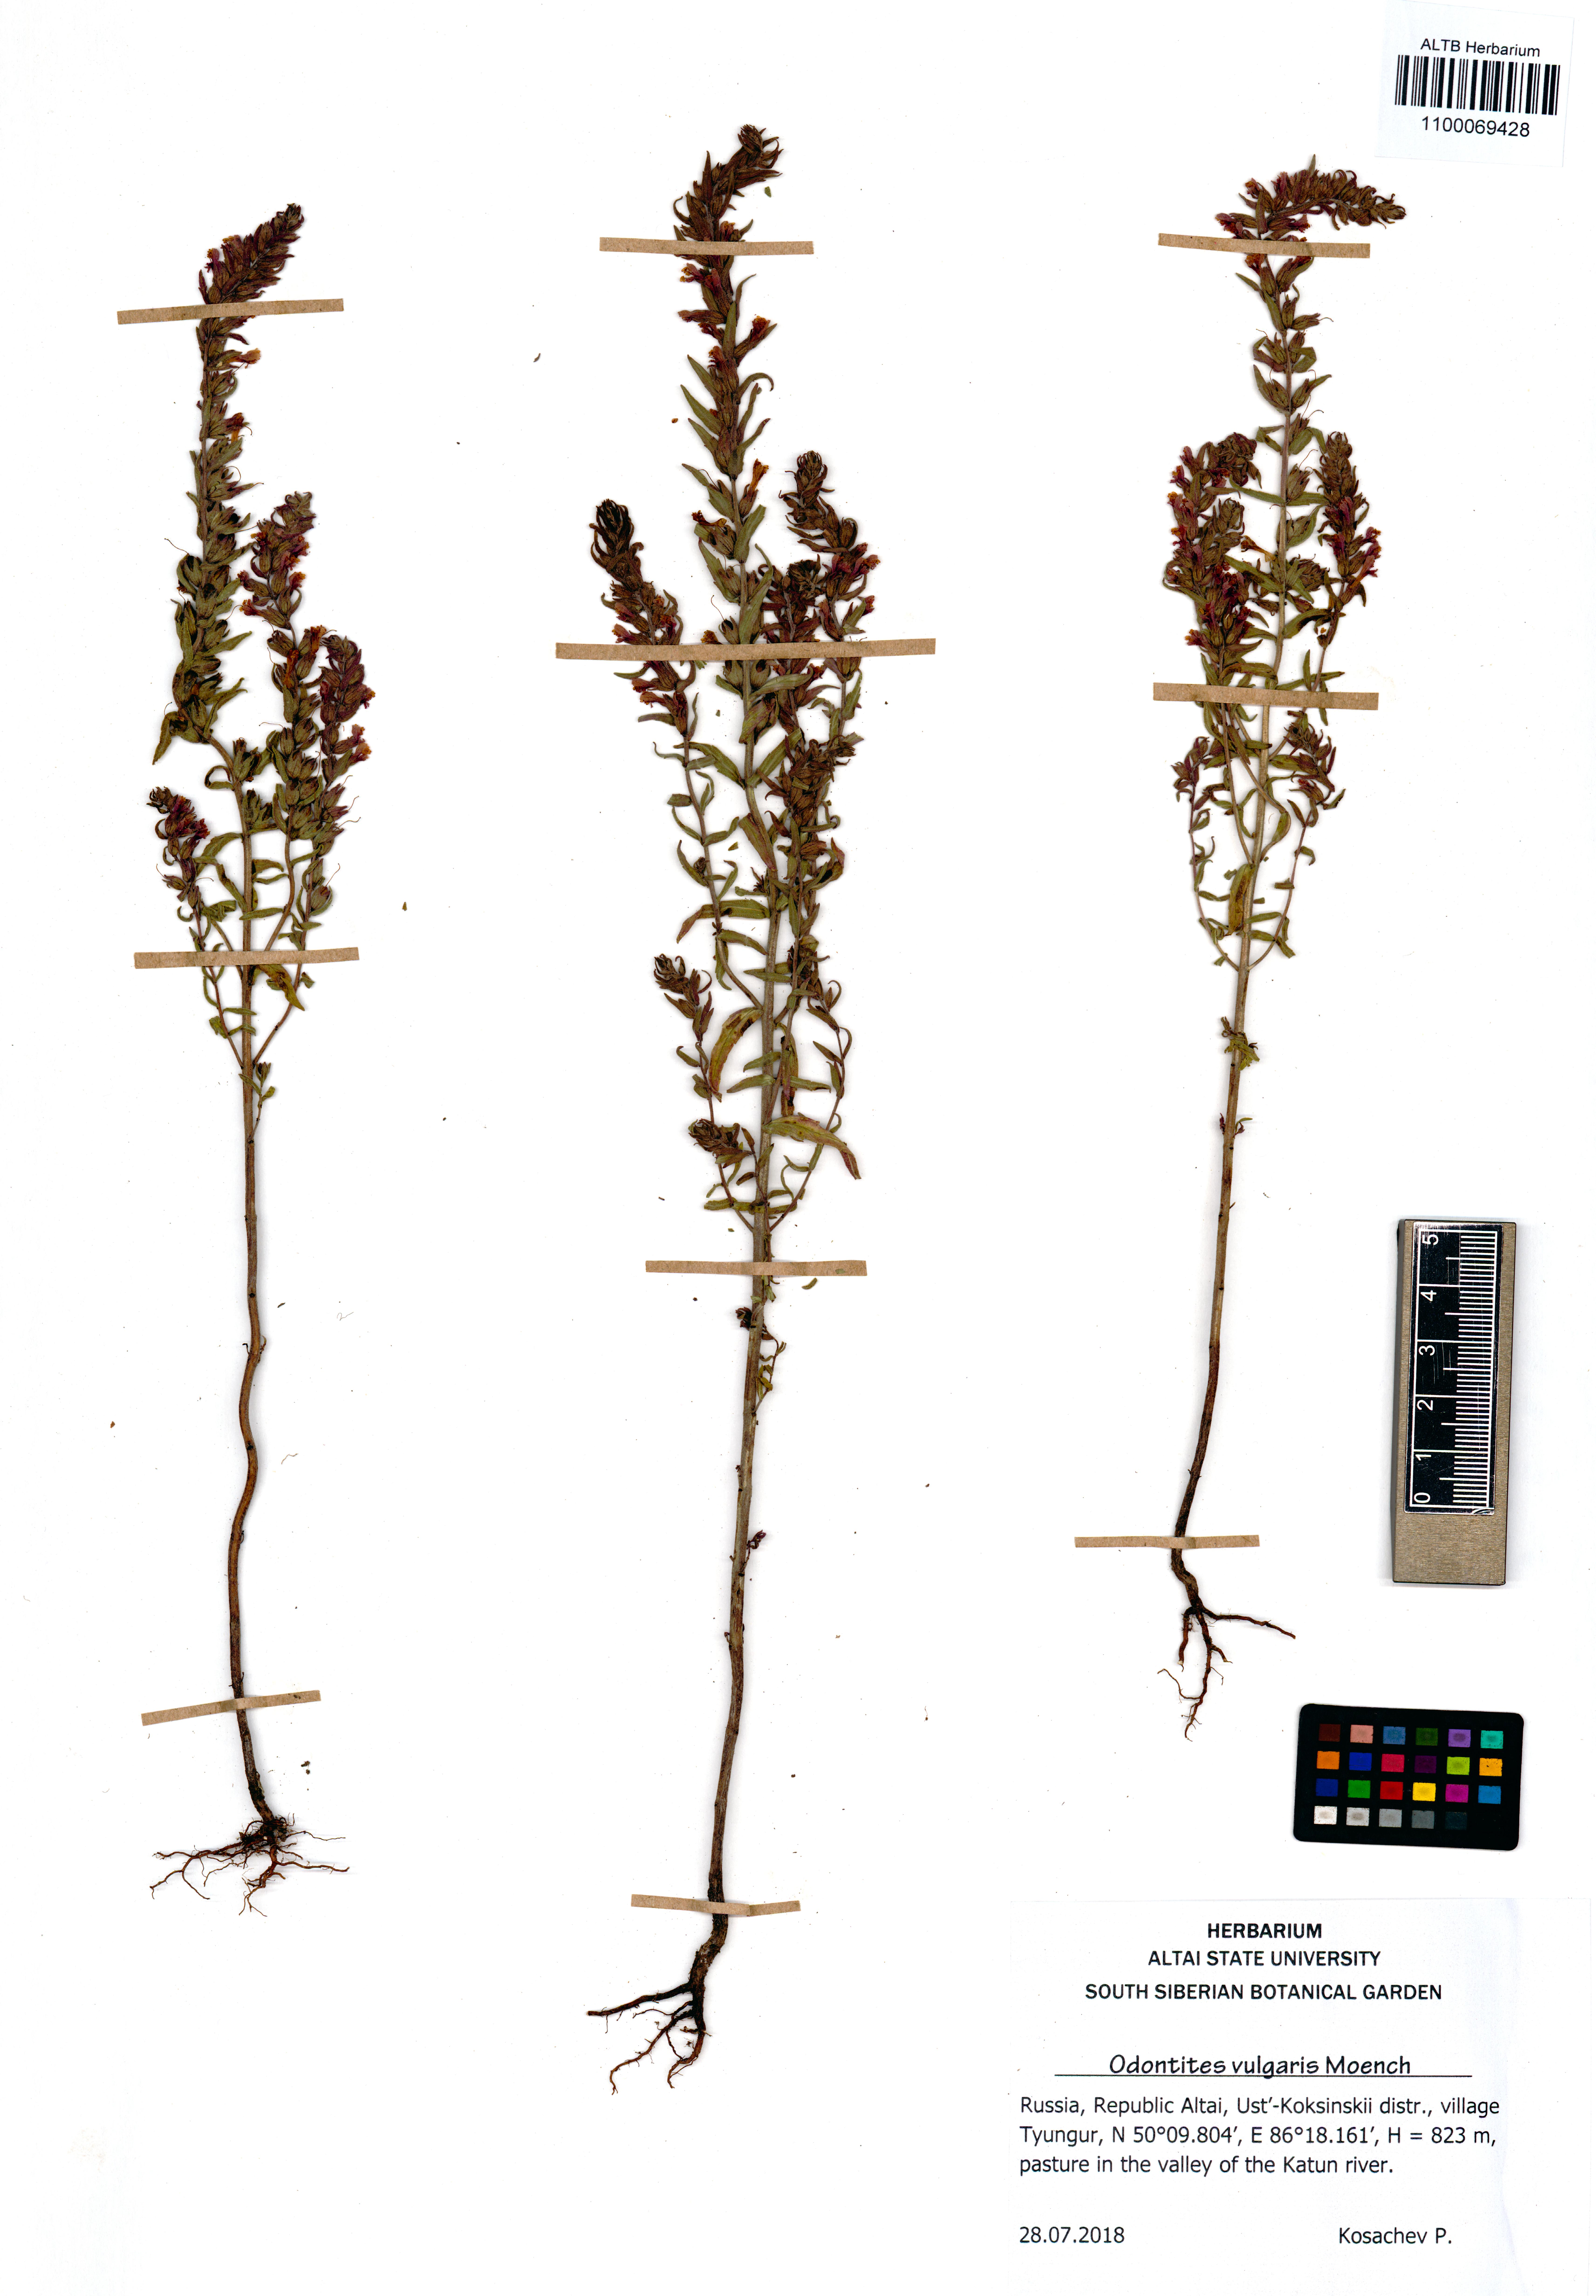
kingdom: Plantae
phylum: Tracheophyta
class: Magnoliopsida
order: Lamiales
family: Orobanchaceae
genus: Odontites
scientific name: Odontites vulgaris
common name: Broomrape
